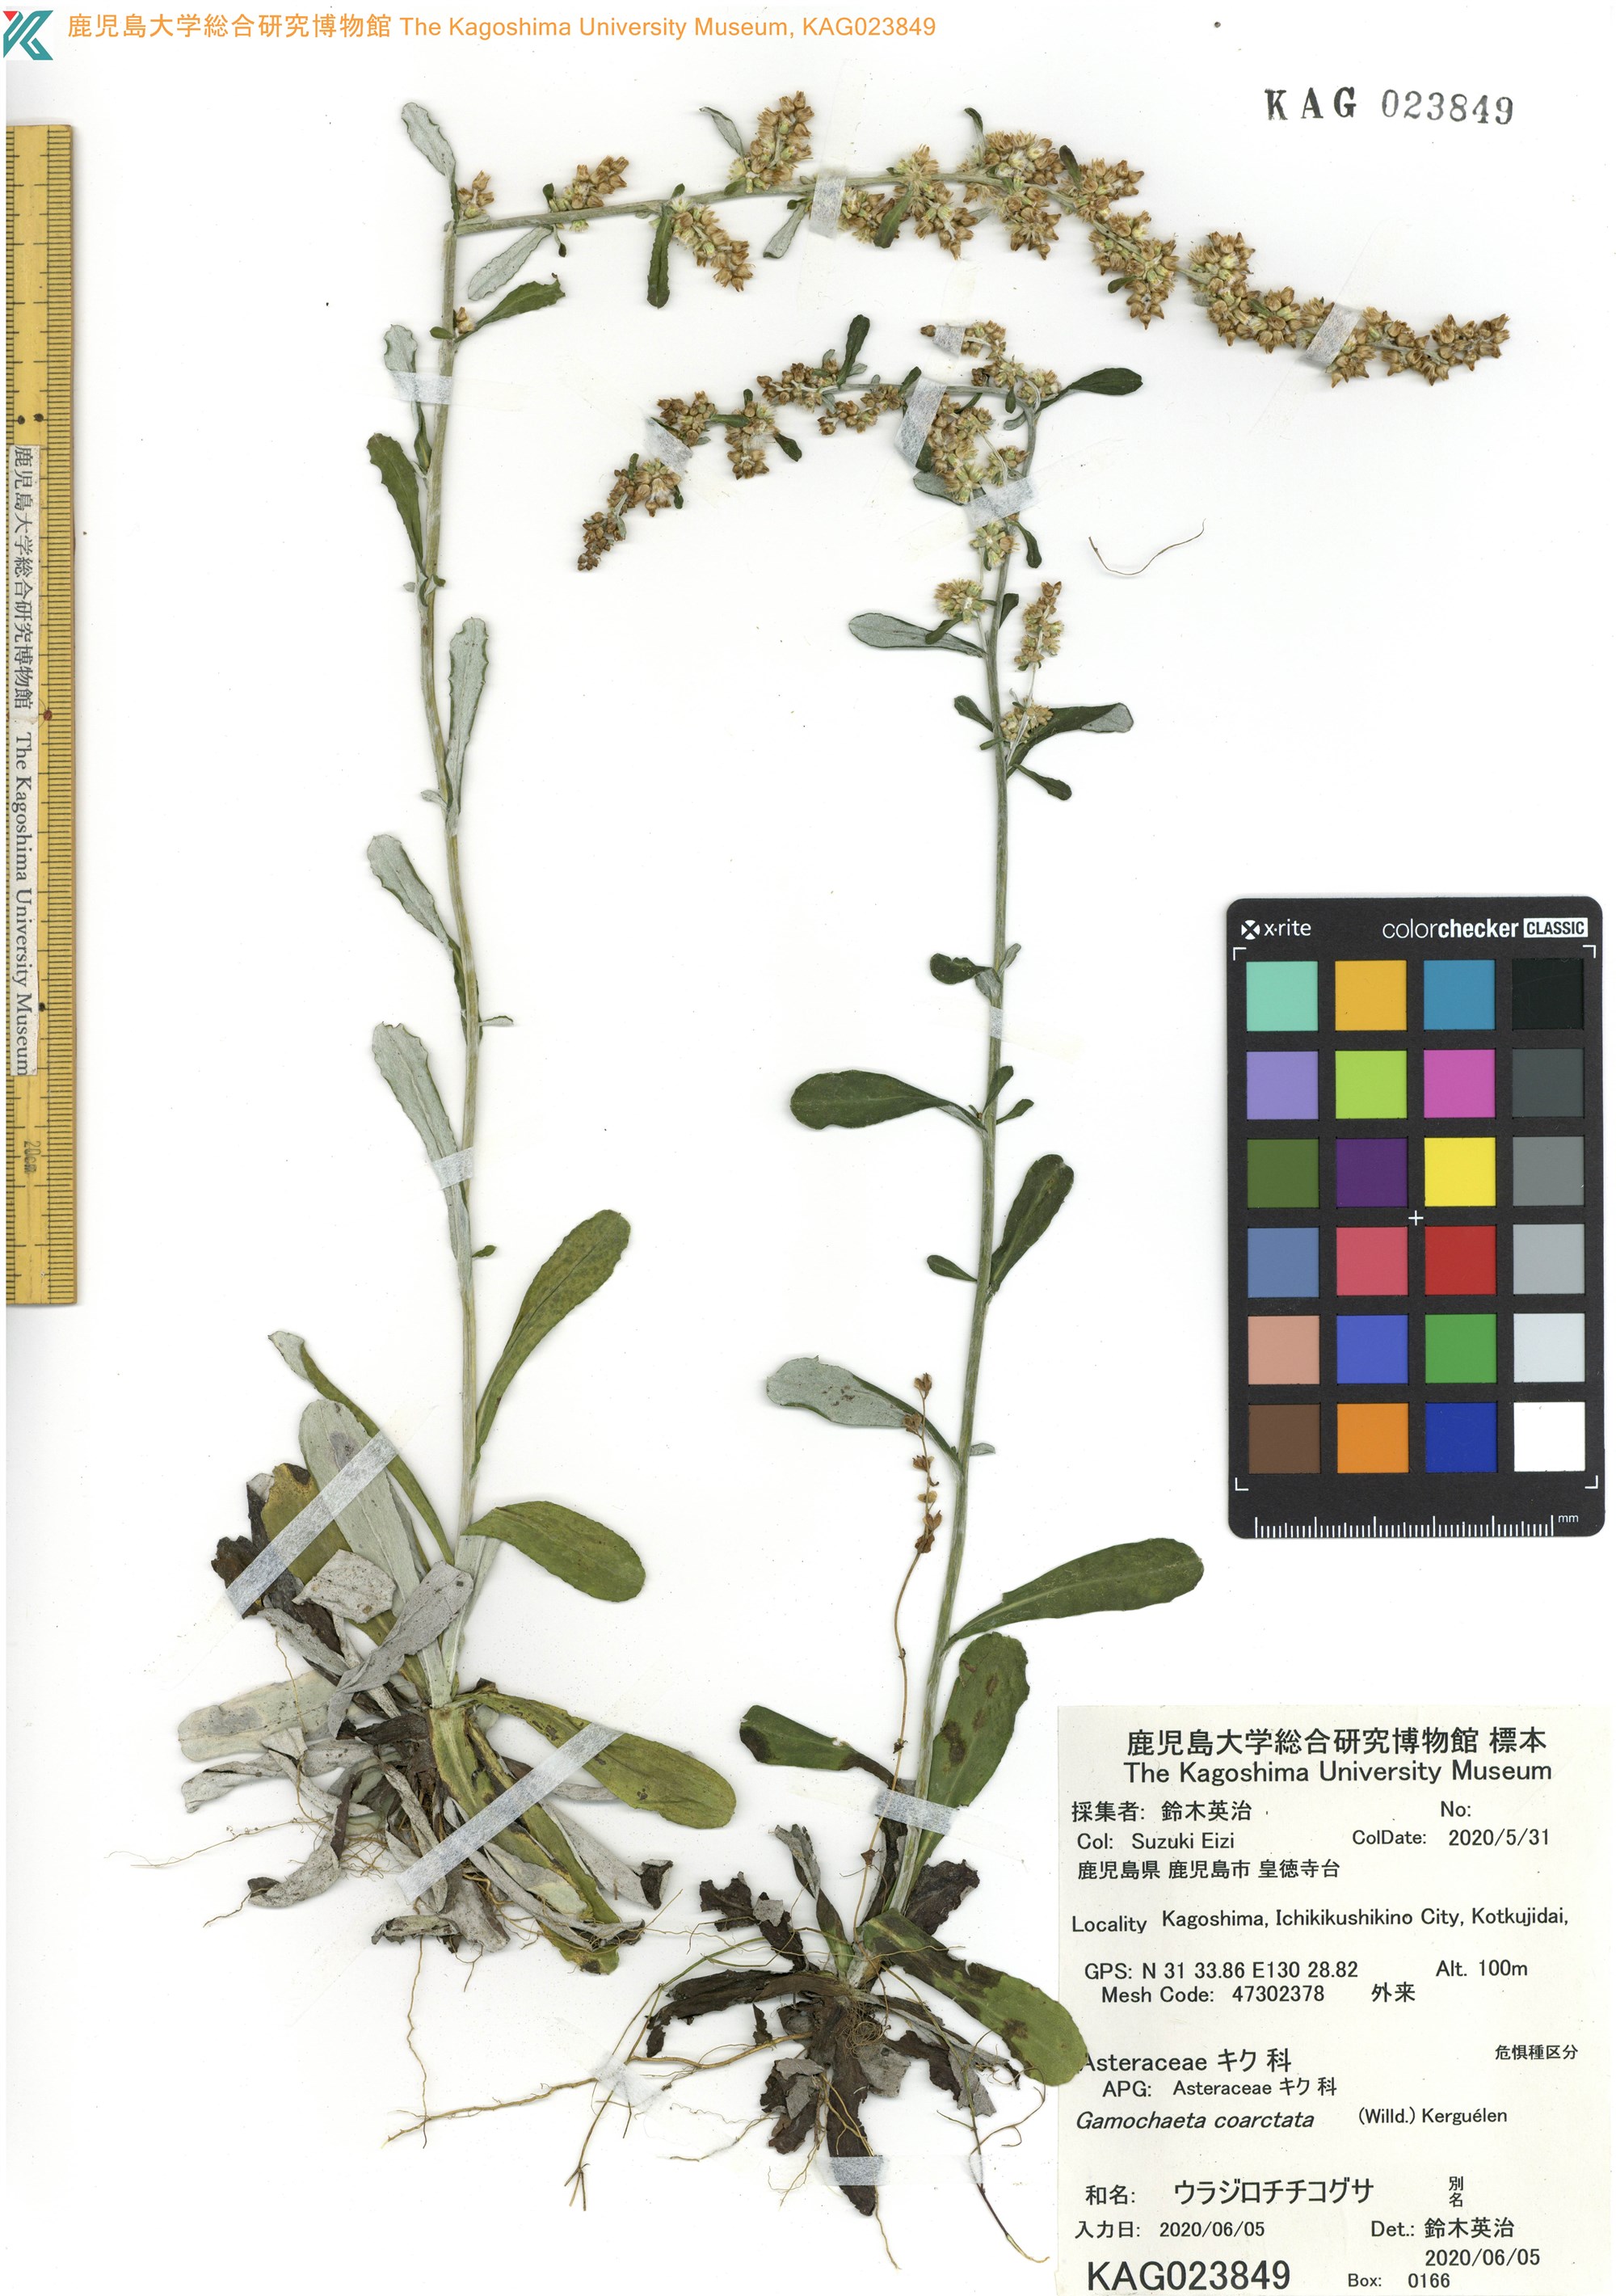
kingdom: Plantae
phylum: Tracheophyta
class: Magnoliopsida
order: Asterales
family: Asteraceae
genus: Gamochaeta
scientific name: Gamochaeta americana
